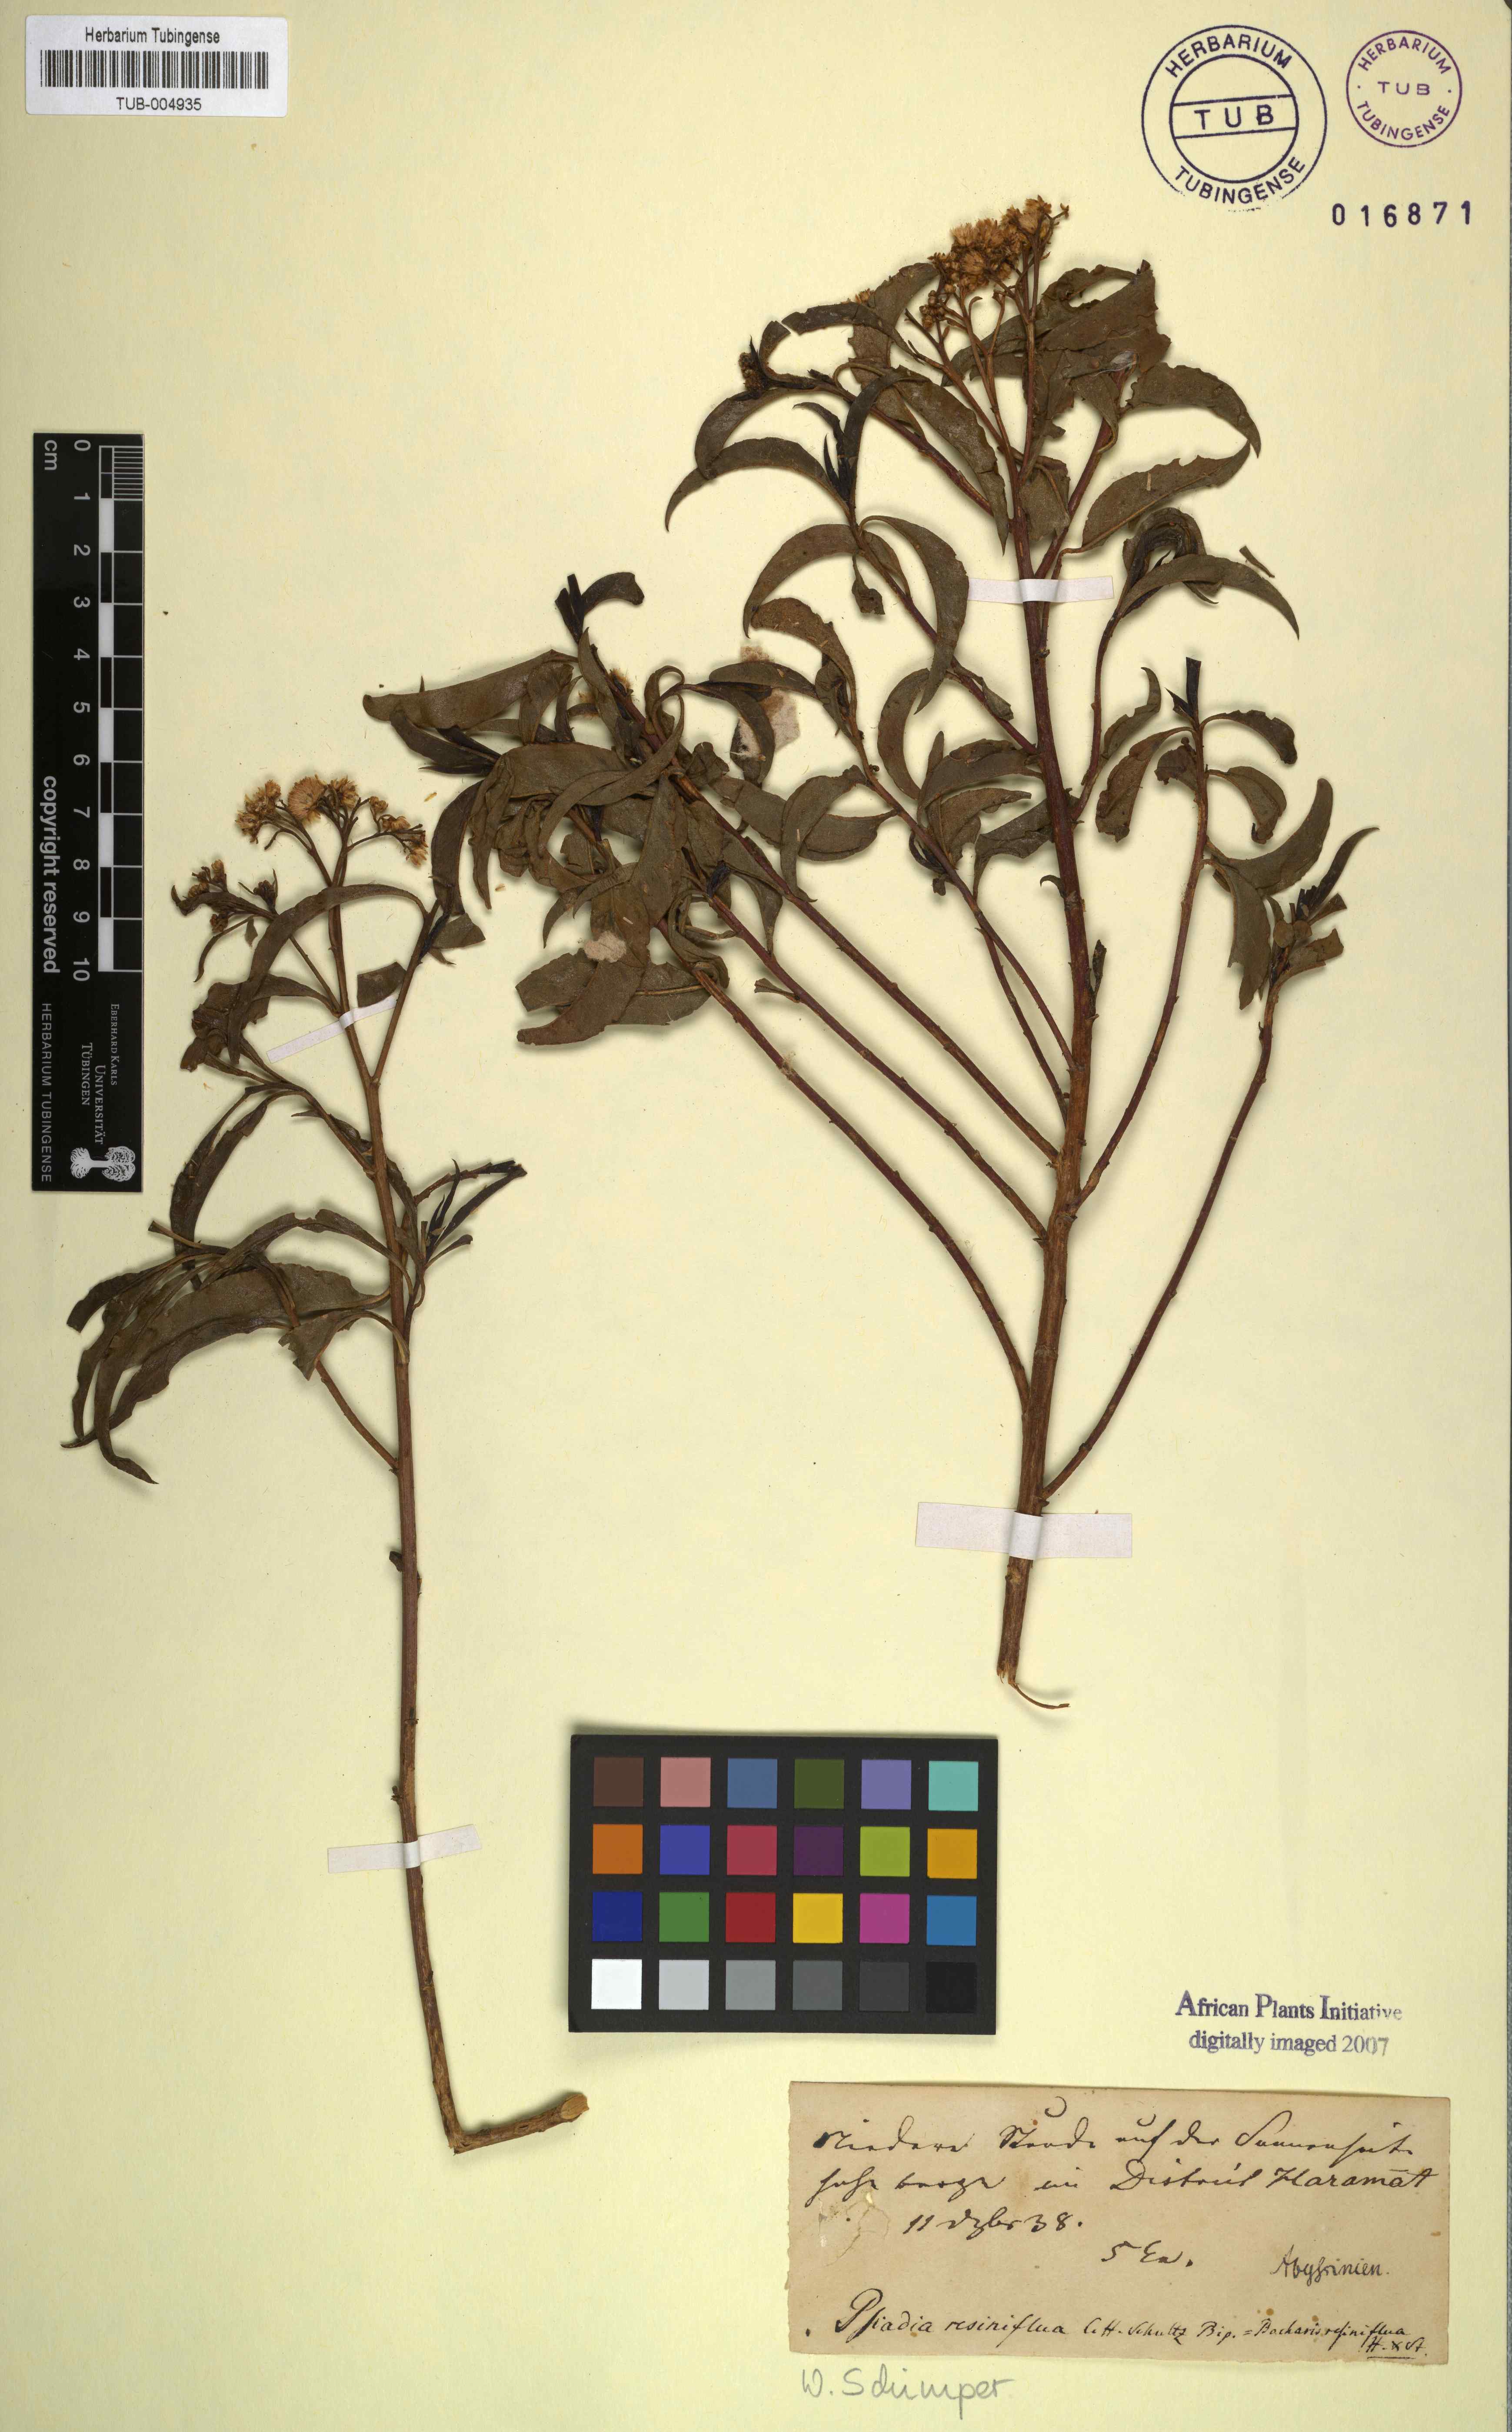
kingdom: Plantae
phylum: Tracheophyta
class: Magnoliopsida
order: Asterales
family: Asteraceae
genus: Psiadia
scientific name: Psiadia punctulata
